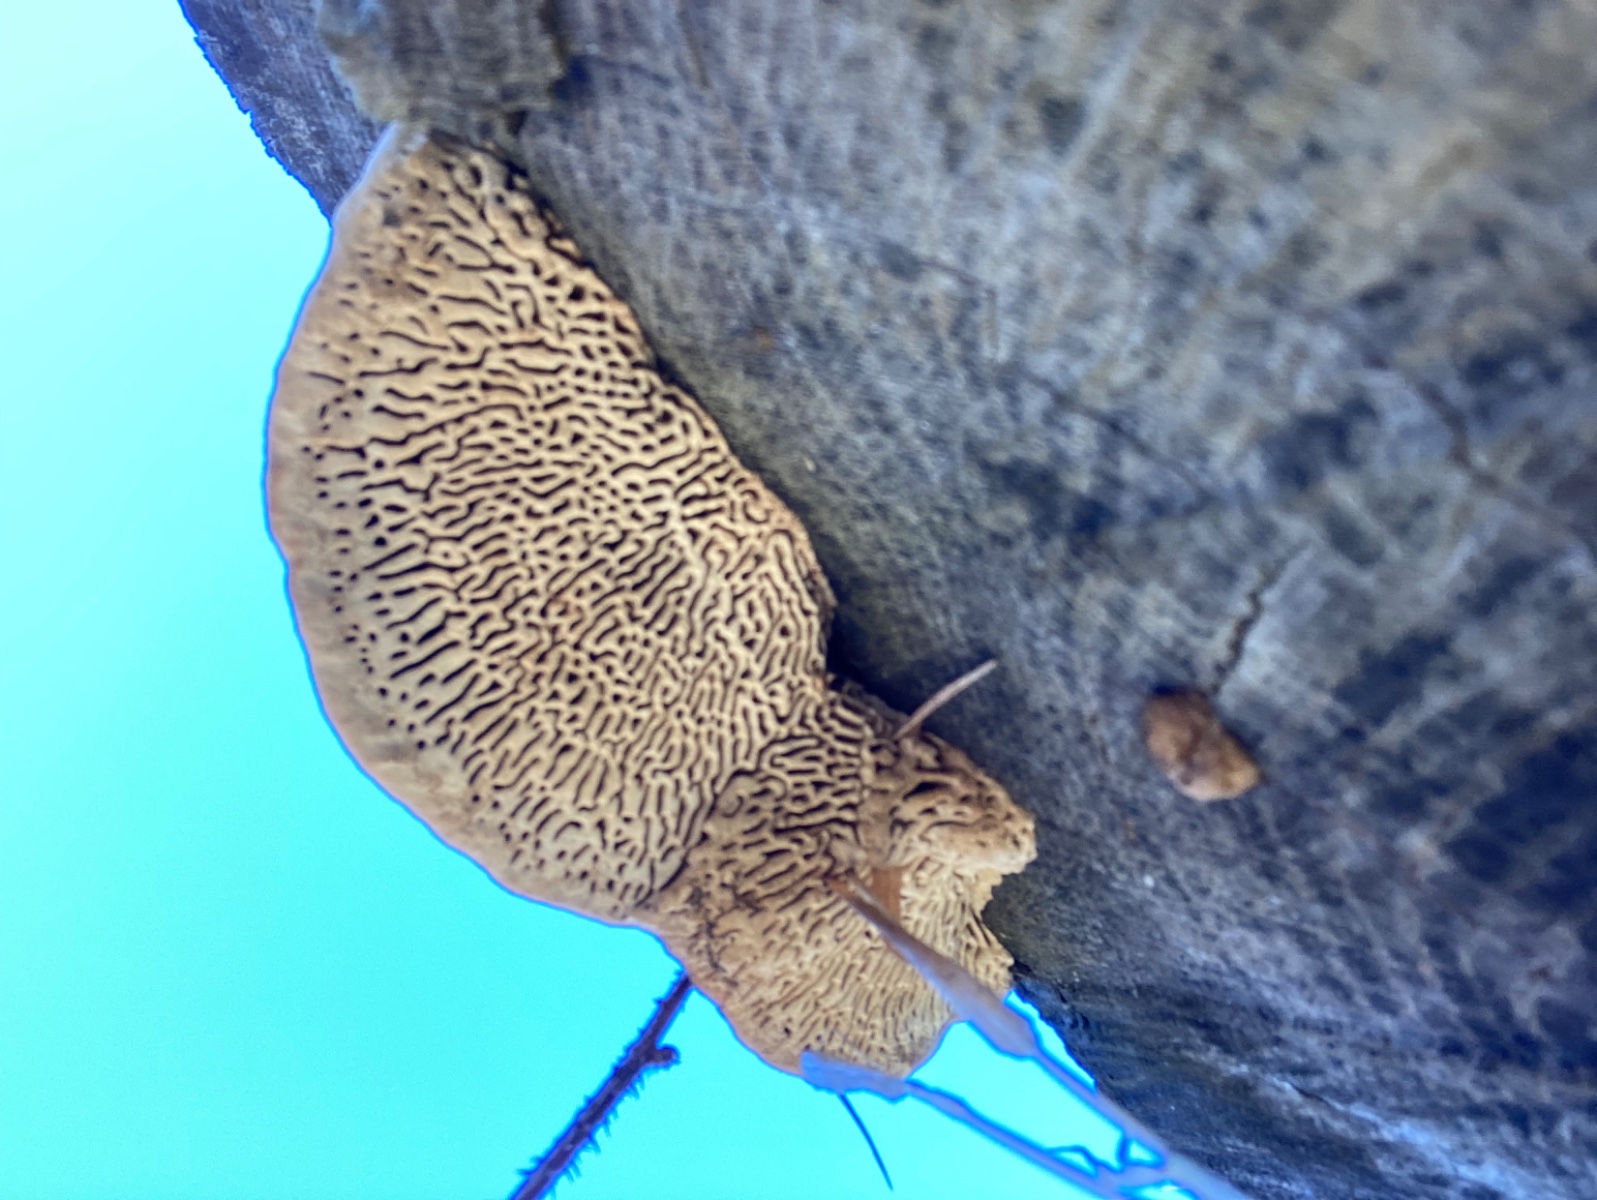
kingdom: Fungi
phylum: Basidiomycota
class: Agaricomycetes
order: Polyporales
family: Fomitopsidaceae
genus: Daedalea
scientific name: Daedalea quercina
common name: ege-labyrintsvamp
